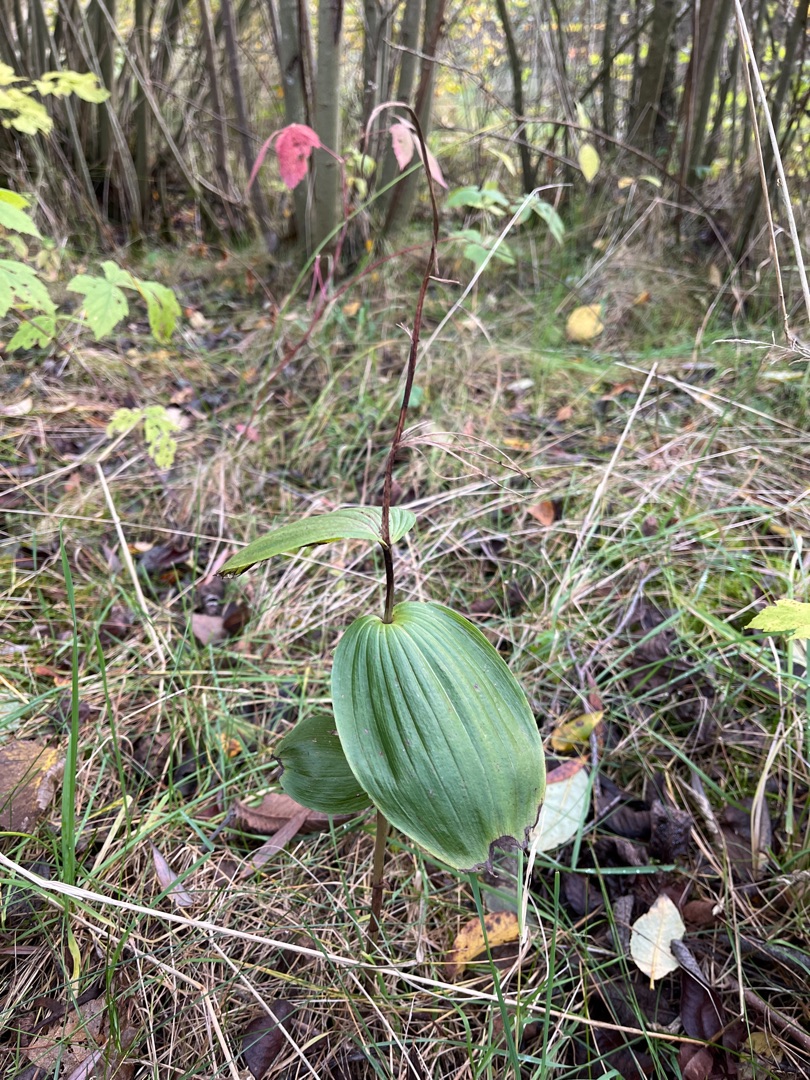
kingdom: Plantae
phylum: Tracheophyta
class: Liliopsida
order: Asparagales
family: Orchidaceae
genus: Epipactis
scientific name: Epipactis helleborine
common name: Skov-hullæbe
